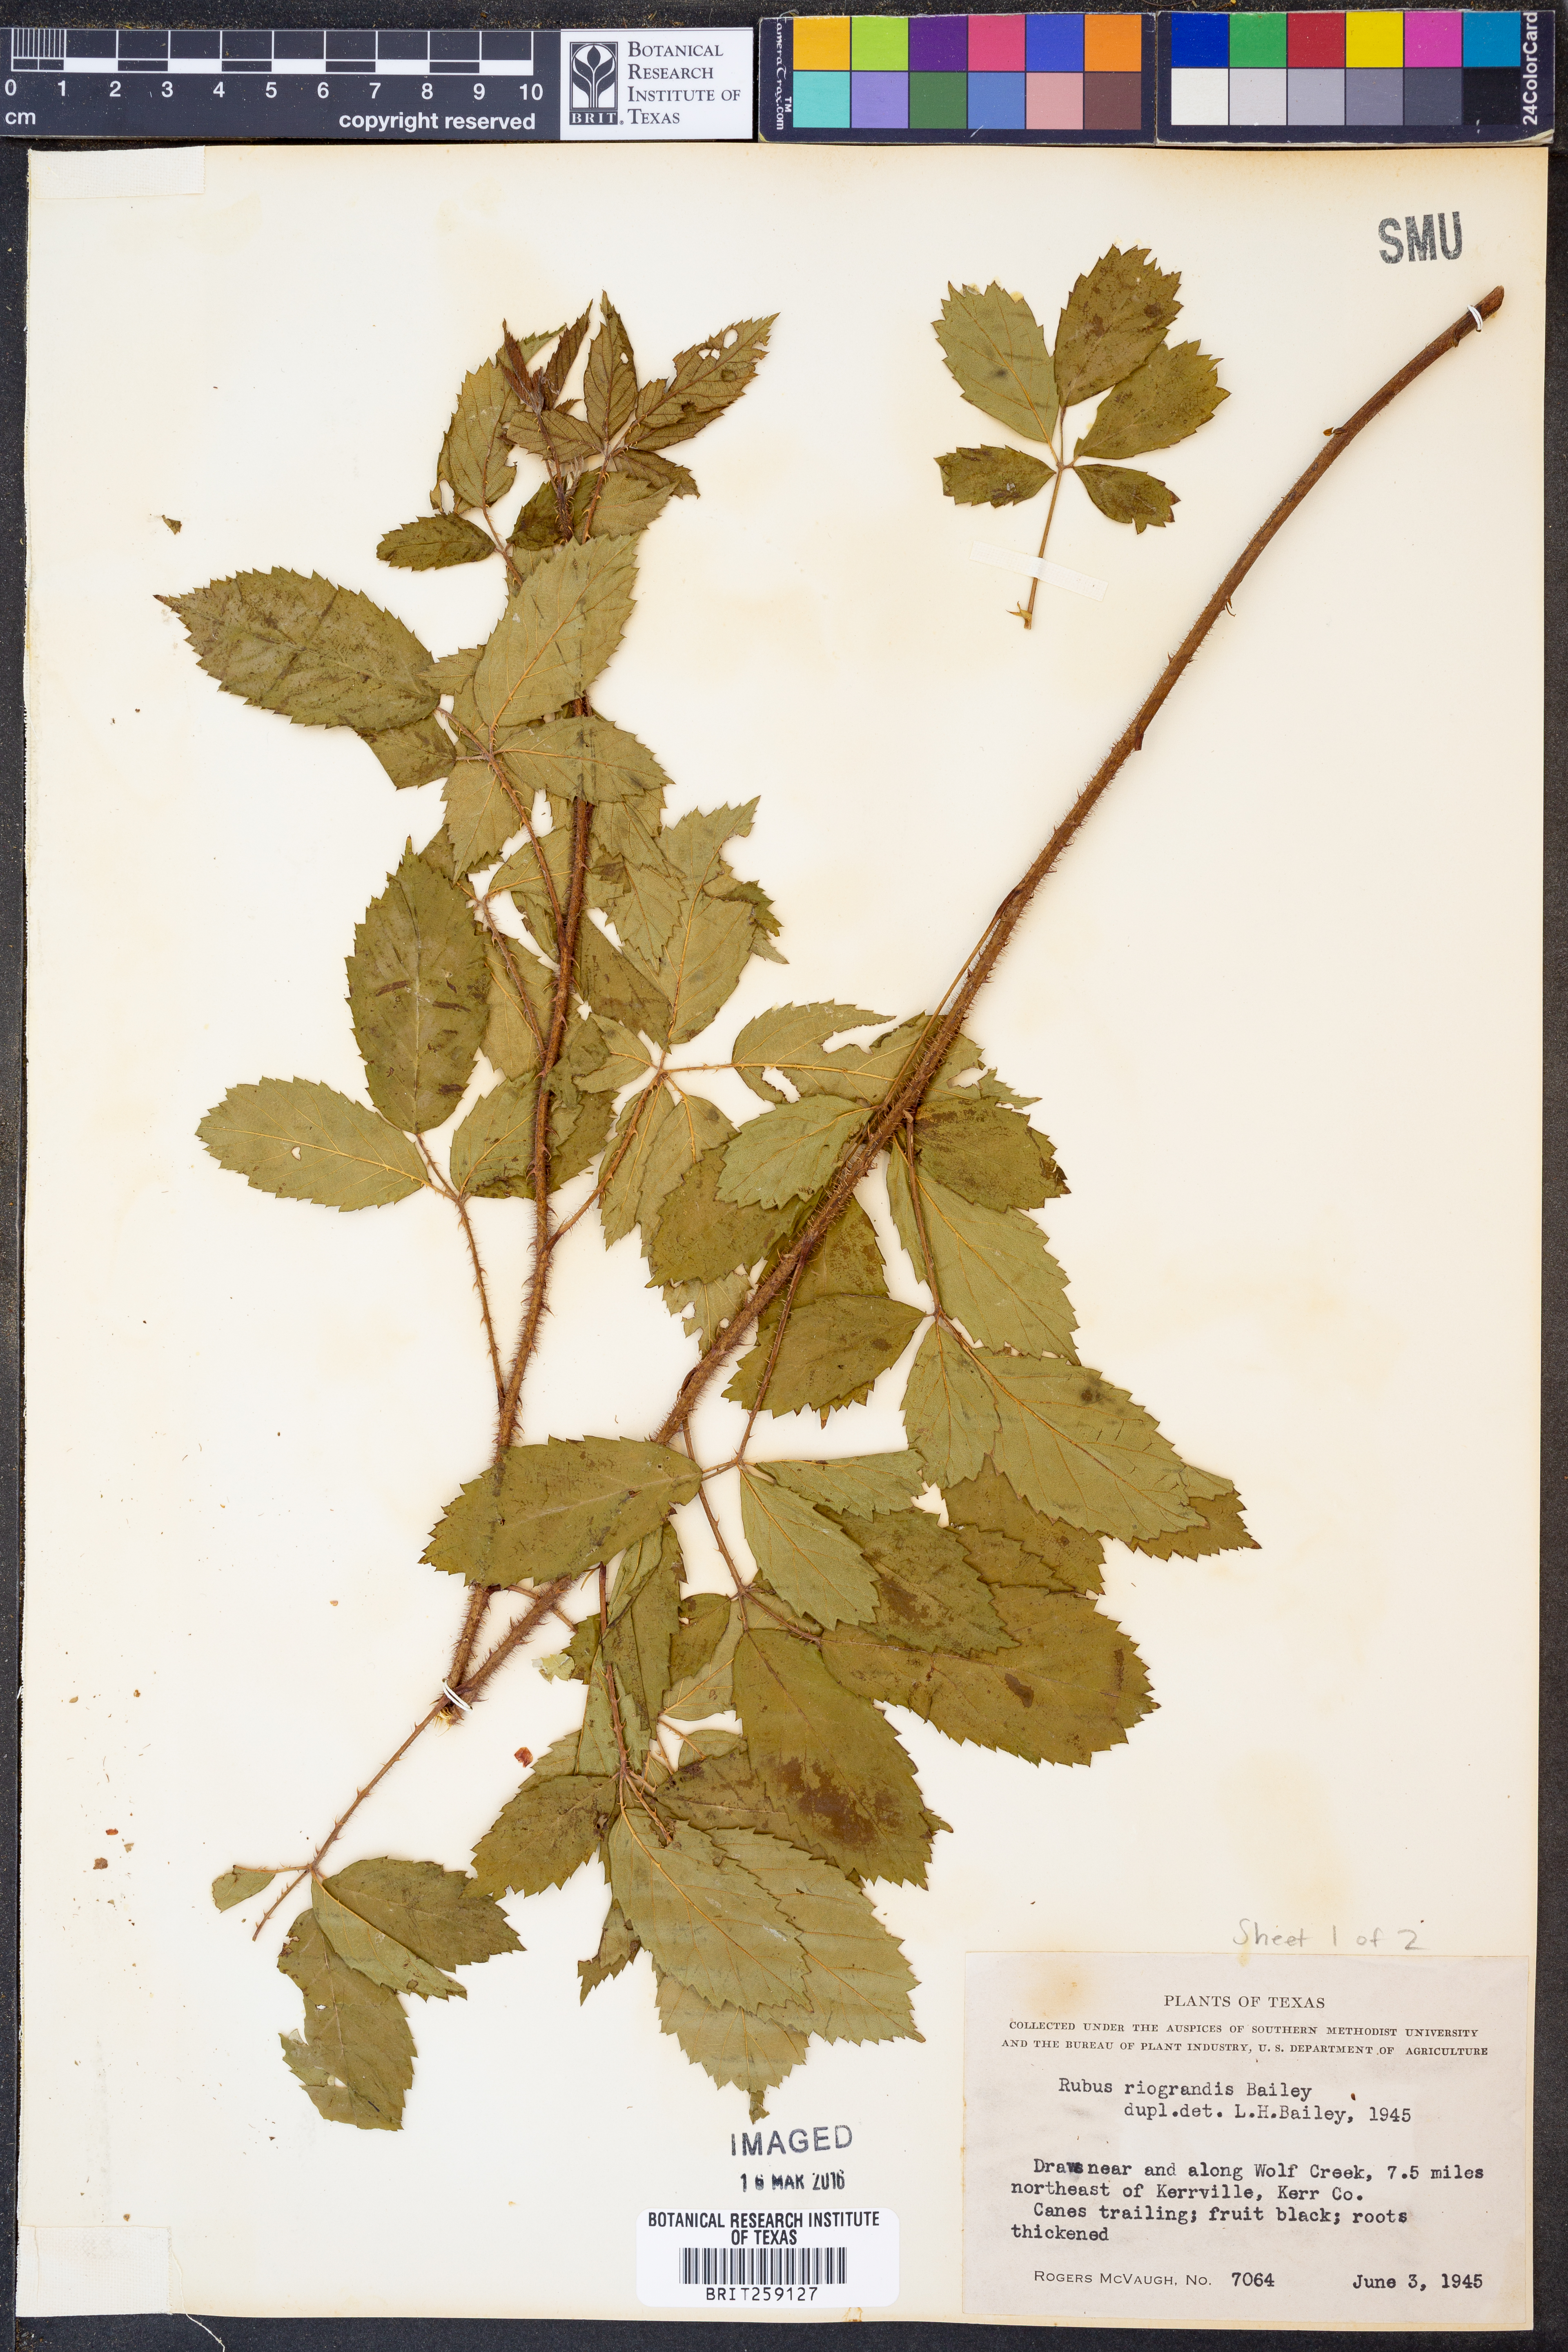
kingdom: Plantae
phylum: Tracheophyta
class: Magnoliopsida
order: Rosales
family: Rosaceae
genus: Rubus
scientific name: Rubus riograndis
